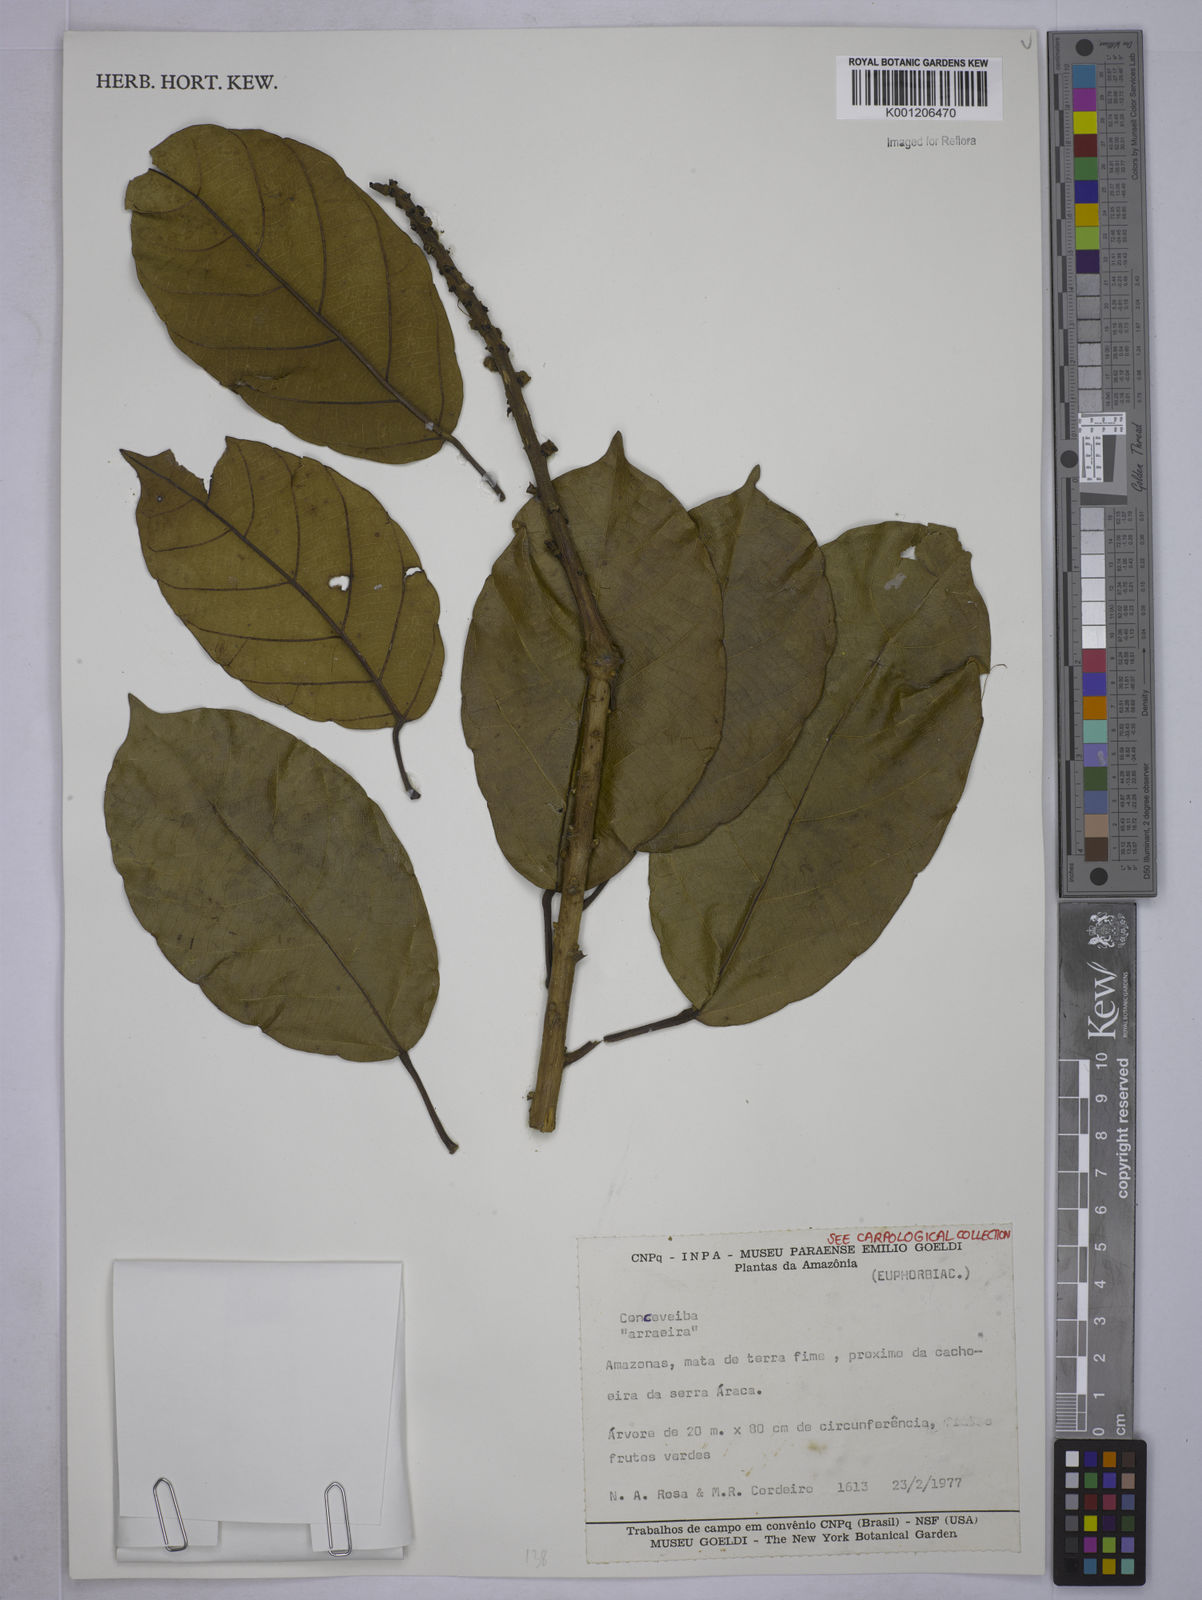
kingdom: Plantae
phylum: Tracheophyta
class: Magnoliopsida
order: Malpighiales
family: Euphorbiaceae
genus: Conceveiba
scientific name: Conceveiba
